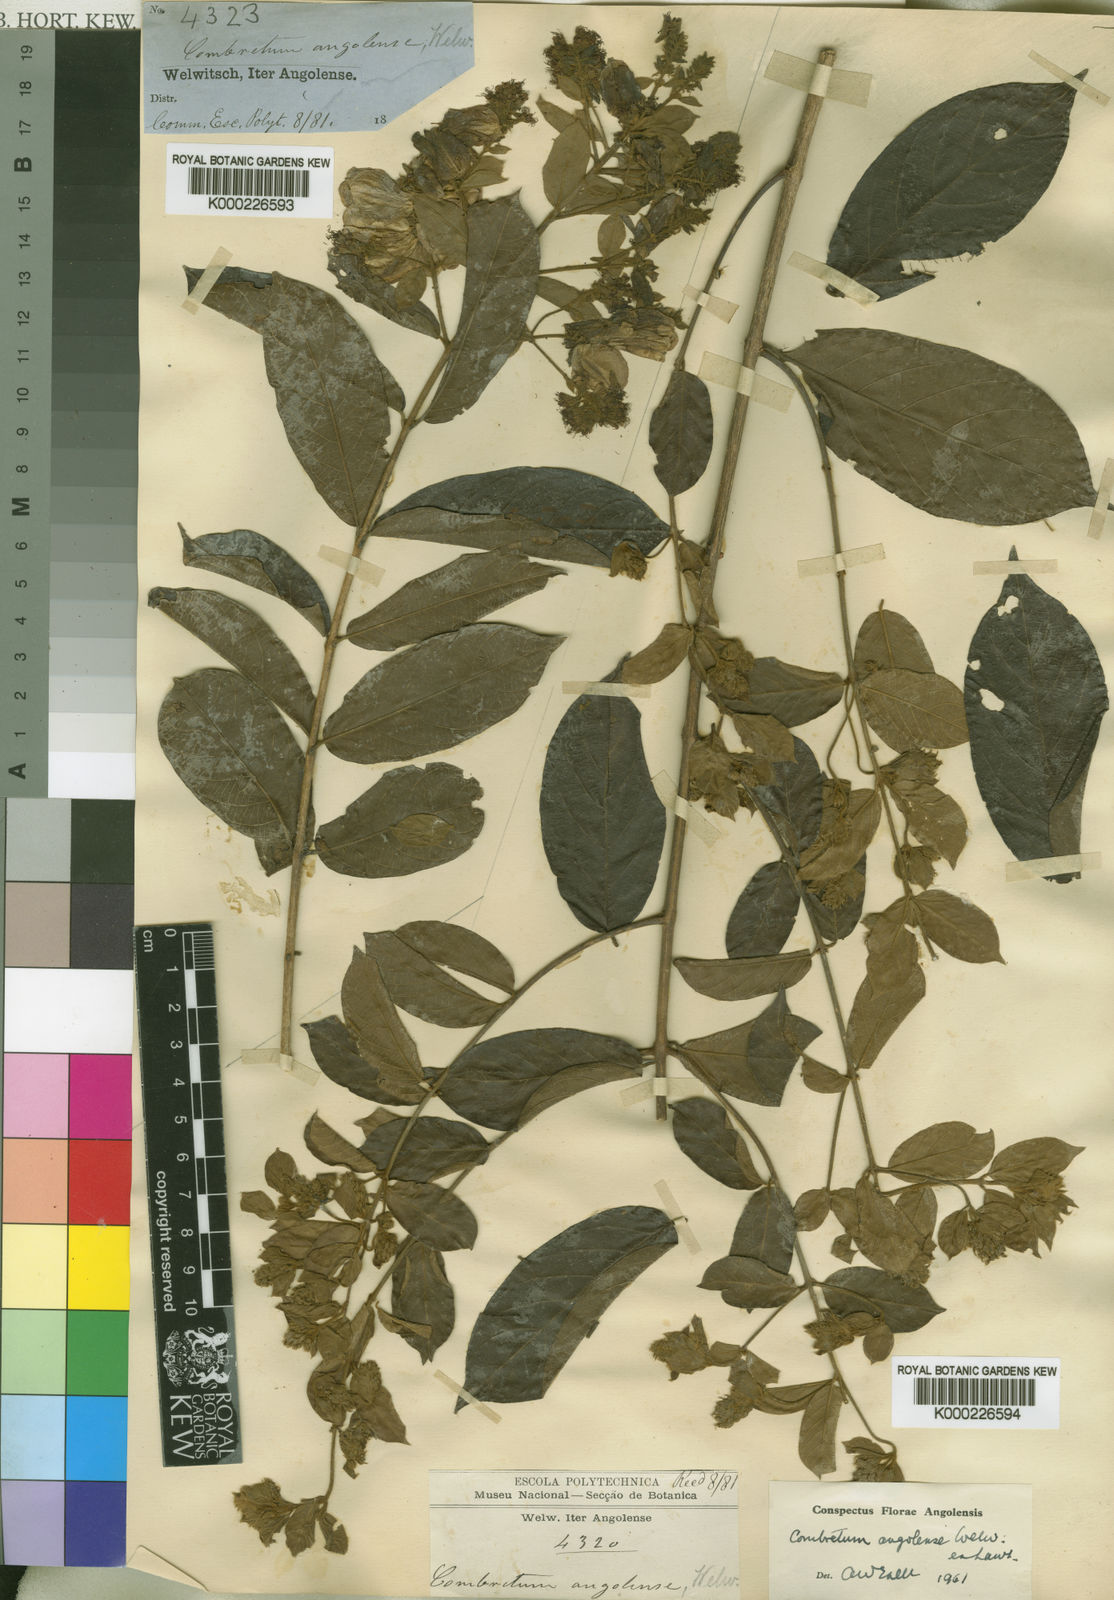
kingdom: Plantae
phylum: Tracheophyta
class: Magnoliopsida
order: Myrtales
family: Combretaceae
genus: Combretum
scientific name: Combretum angolense
